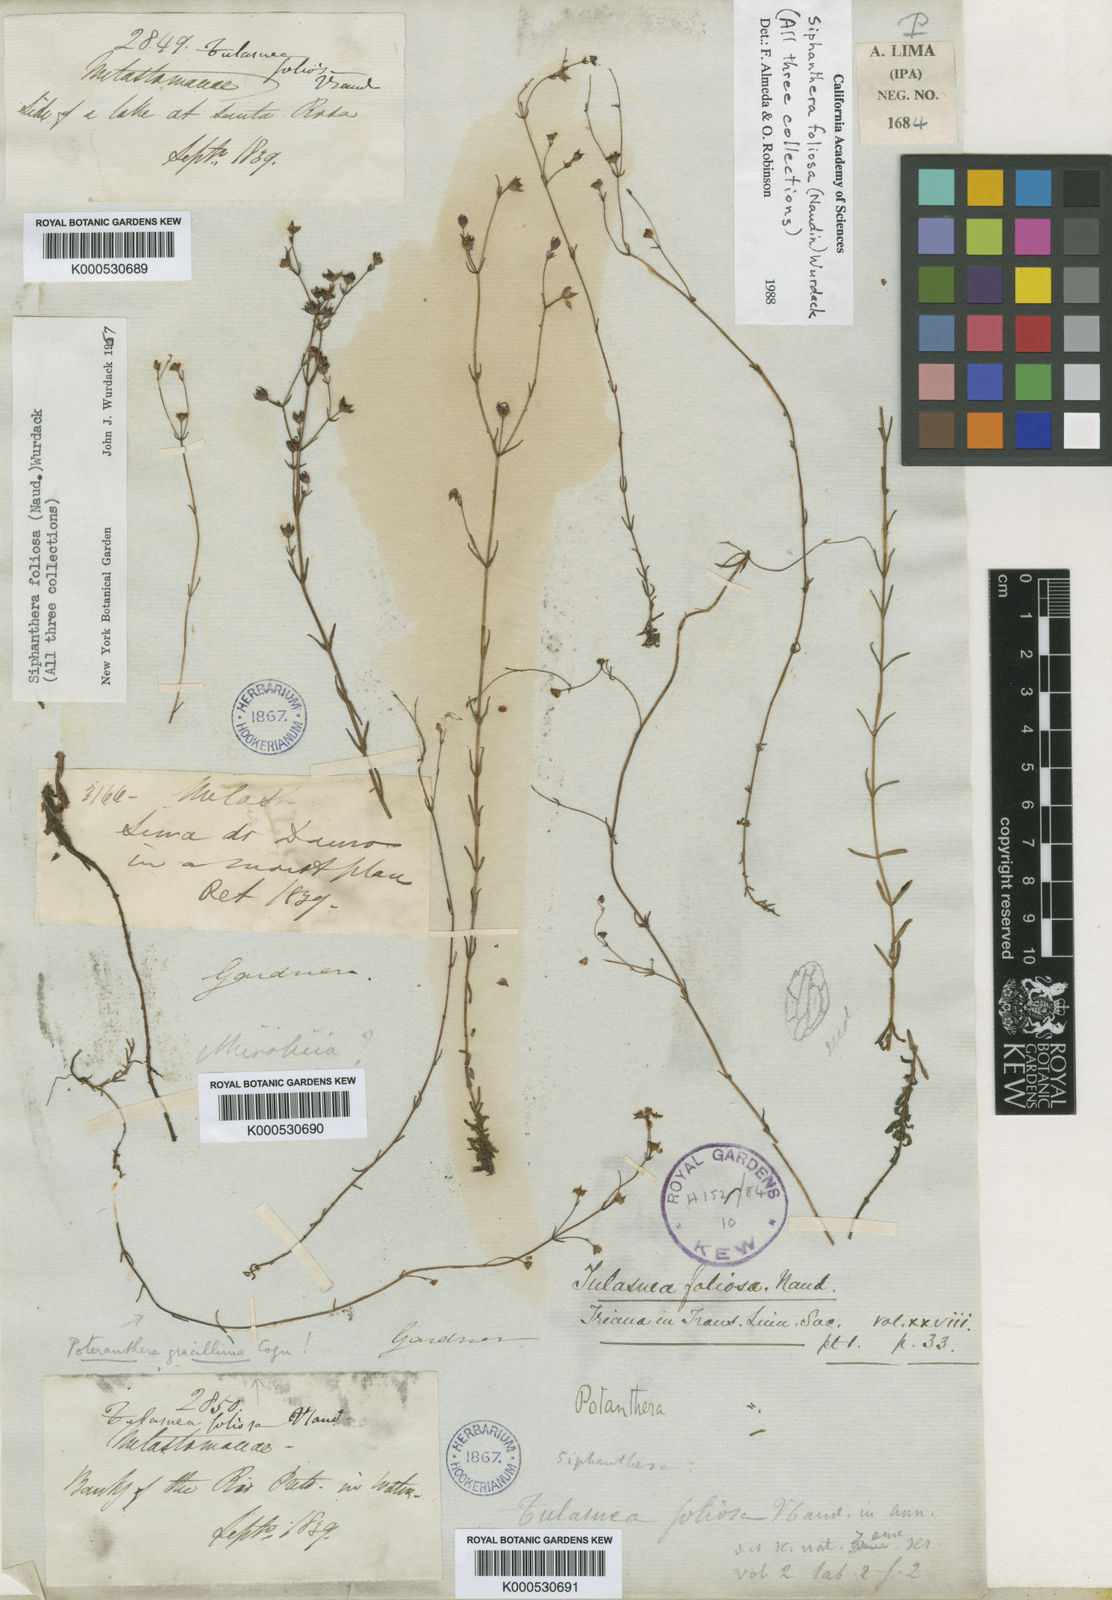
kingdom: Plantae
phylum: Tracheophyta
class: Magnoliopsida
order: Myrtales
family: Melastomataceae
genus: Siphanthera
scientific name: Siphanthera foliosa
